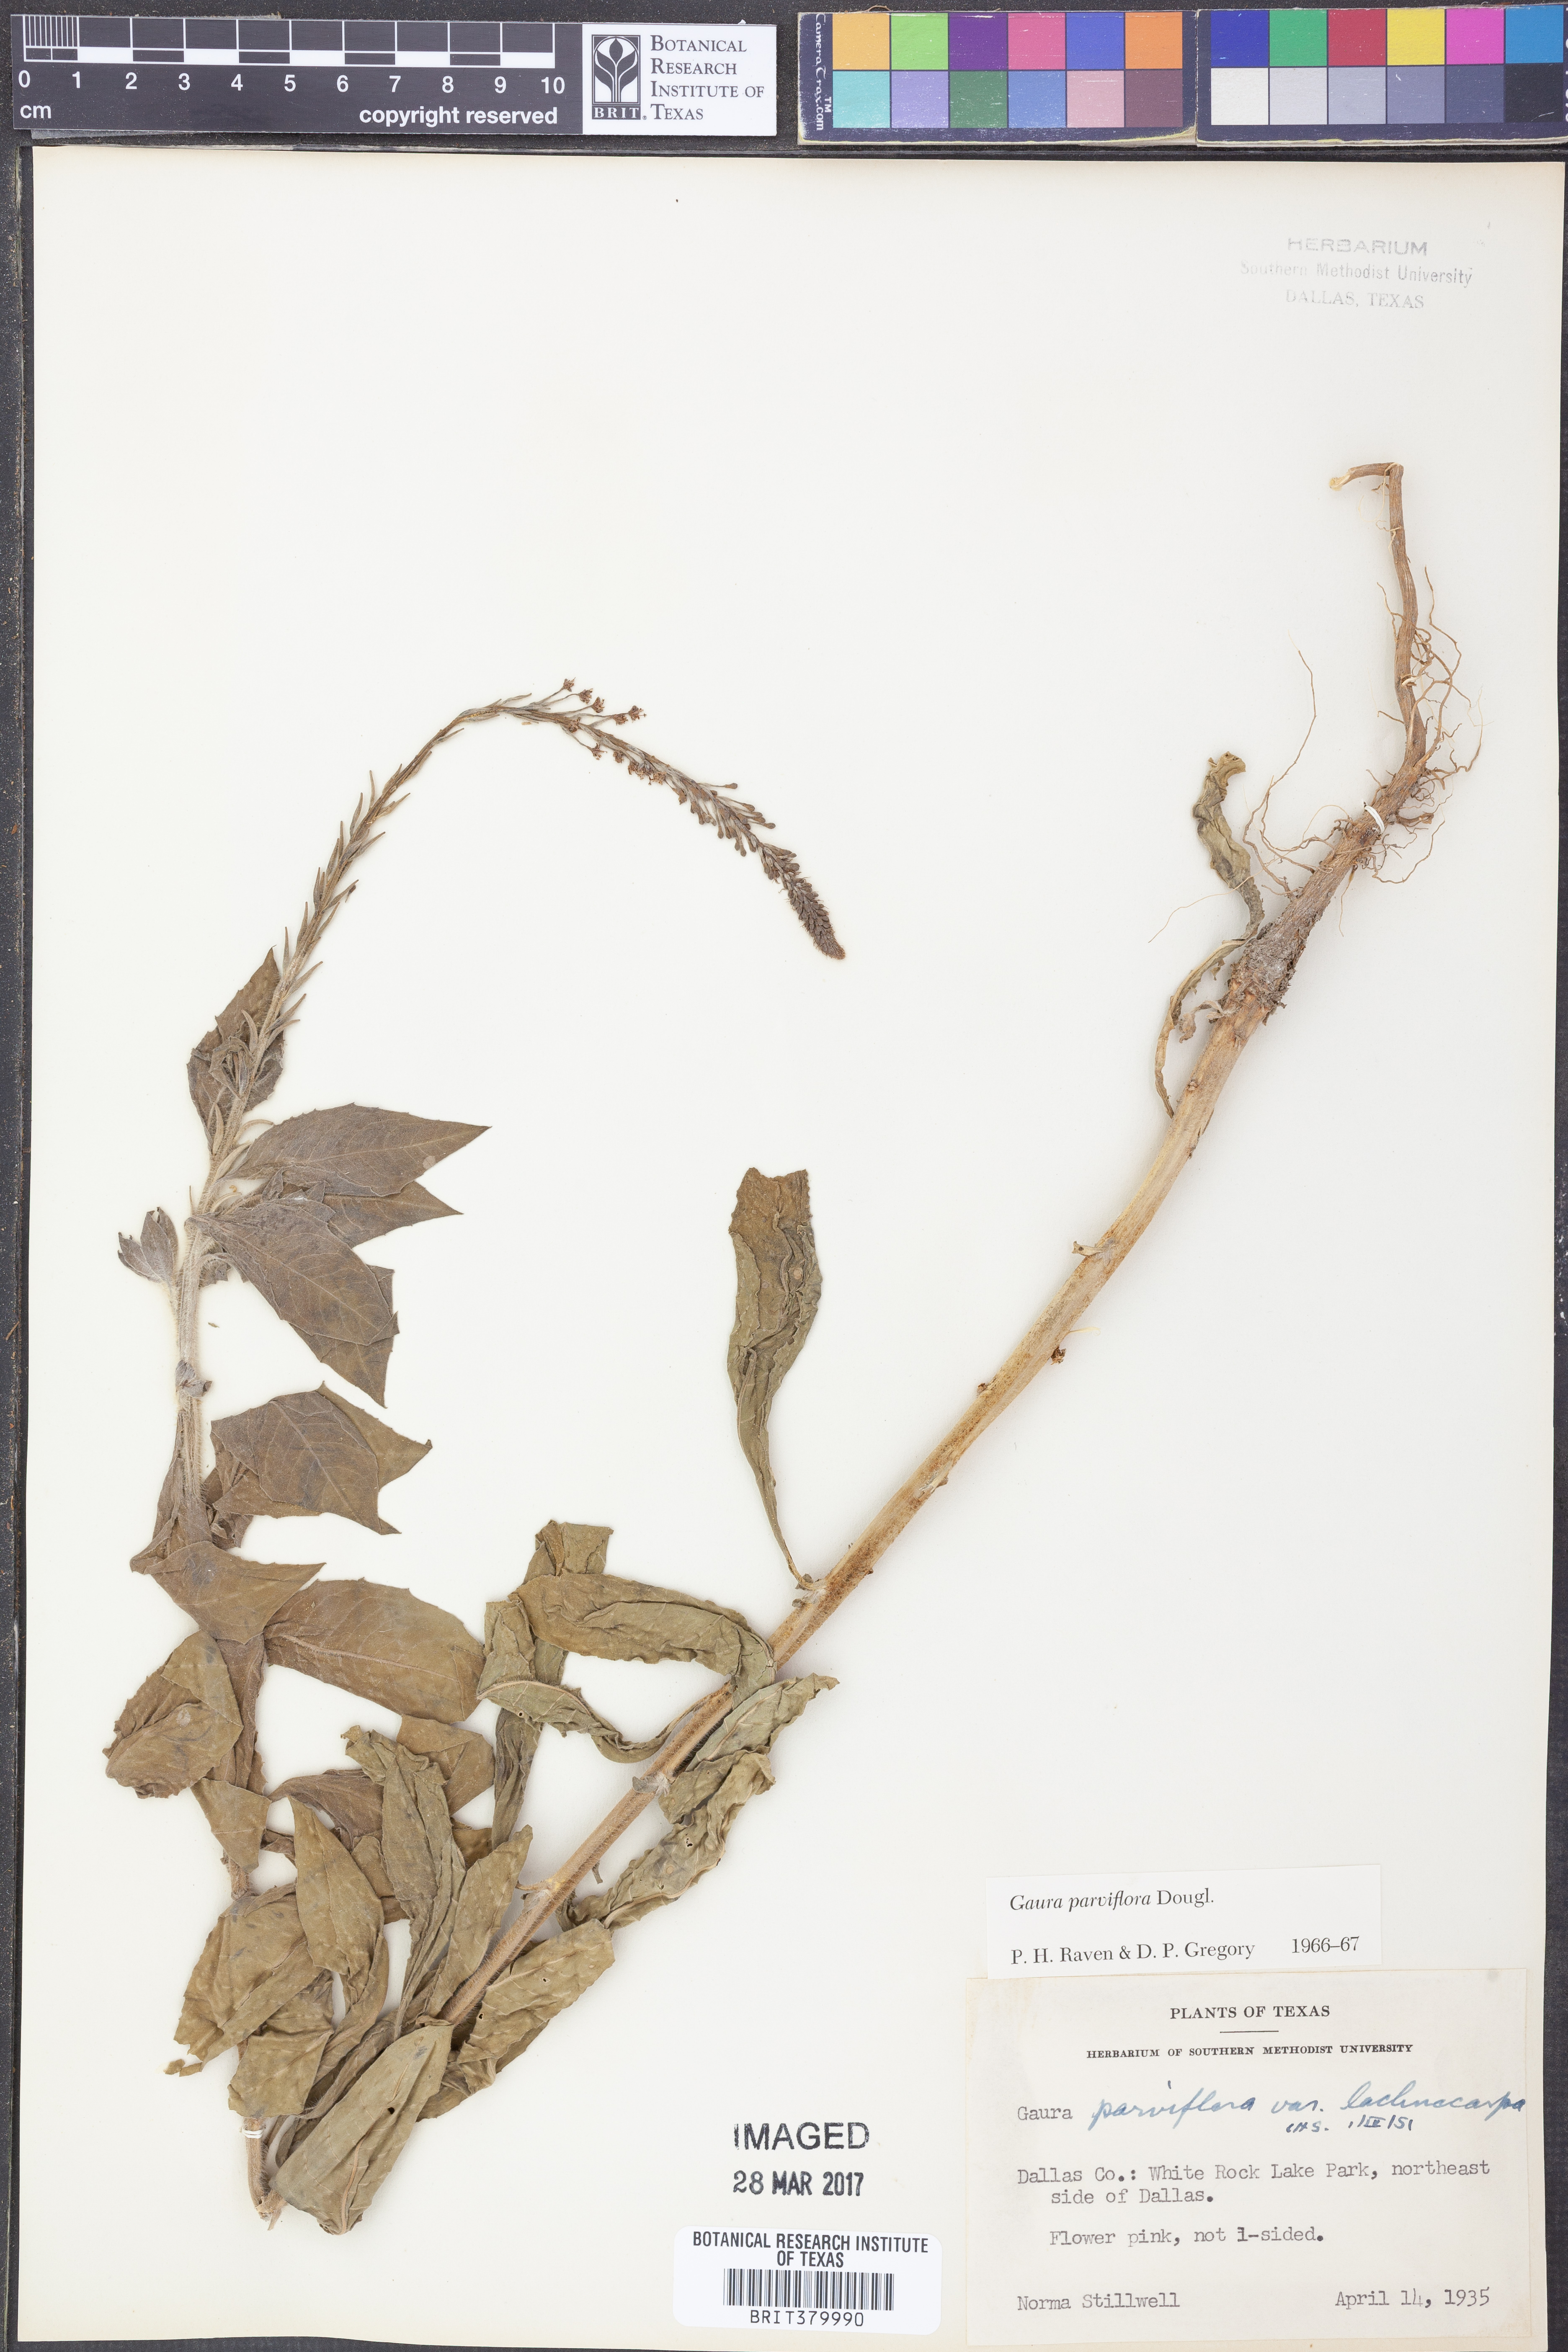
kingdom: Plantae
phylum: Tracheophyta
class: Magnoliopsida
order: Myrtales
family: Onagraceae
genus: Oenothera
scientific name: Oenothera curtiflora
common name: Velvetweed
